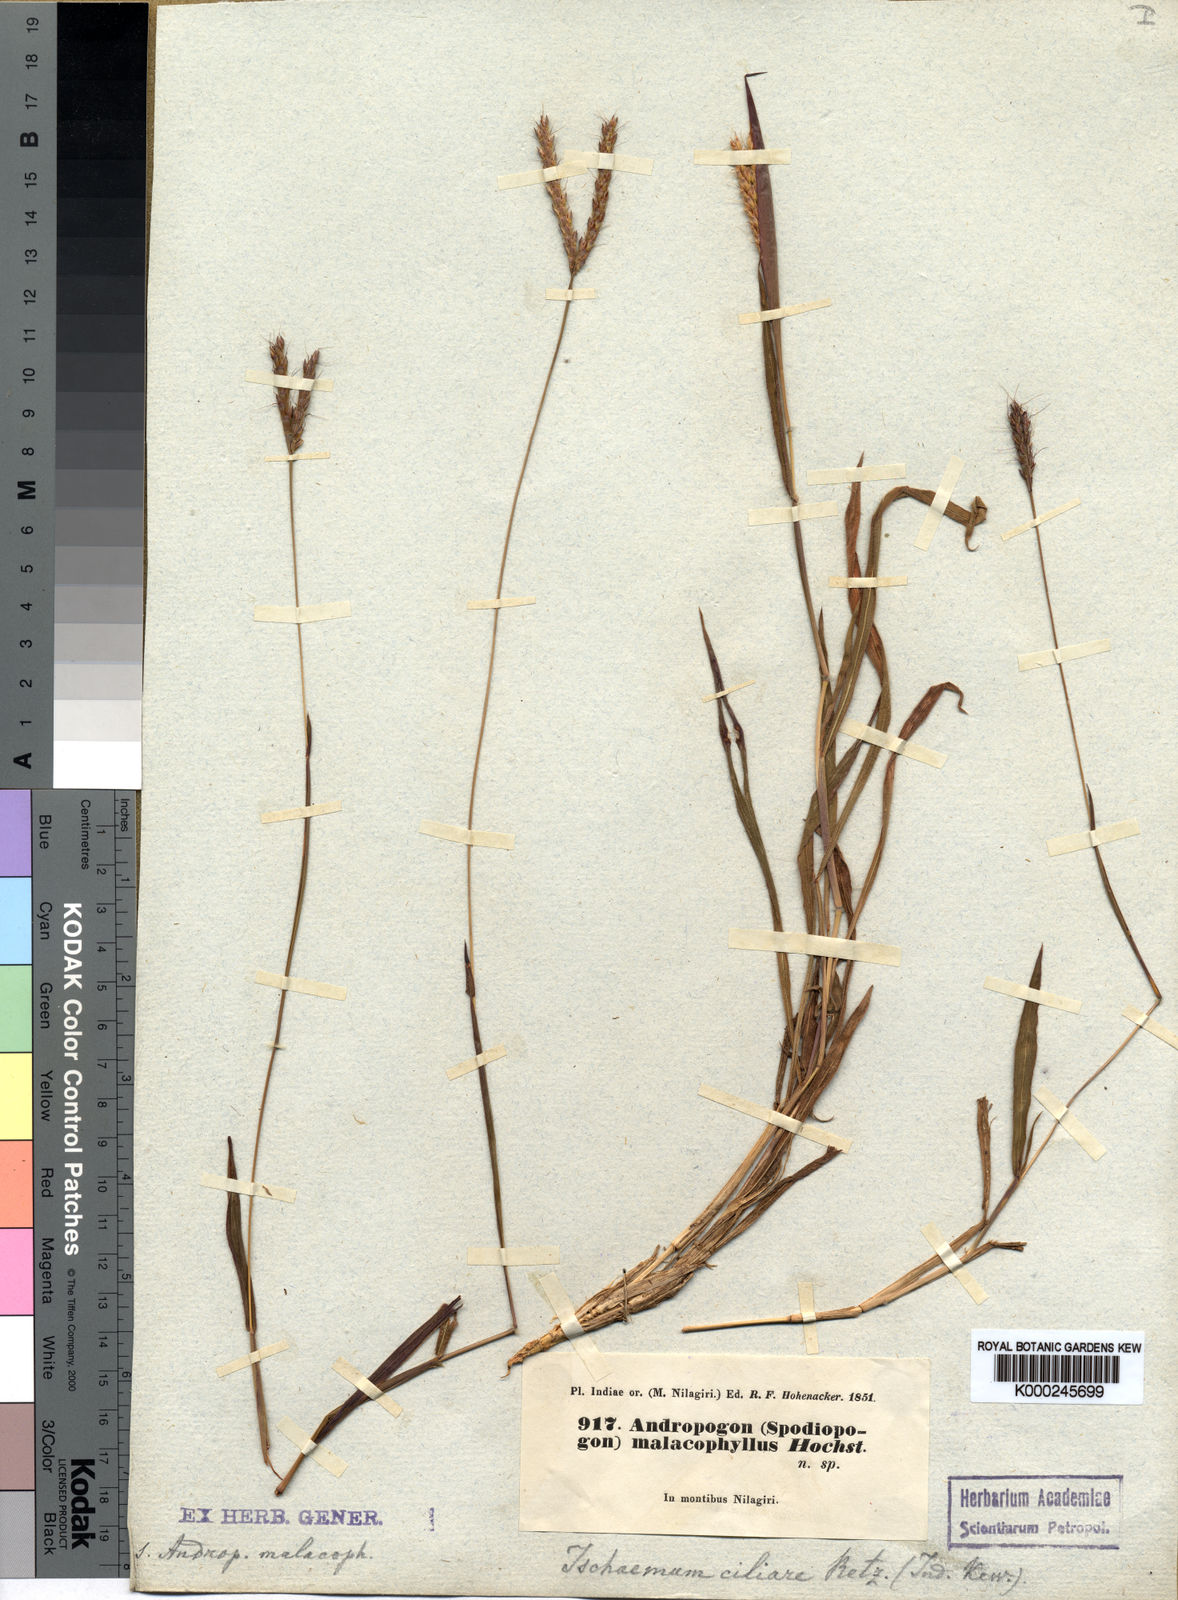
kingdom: Plantae
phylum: Tracheophyta
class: Liliopsida
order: Poales
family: Poaceae
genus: Polytrias
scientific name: Polytrias indica
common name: Indian murainagrass
